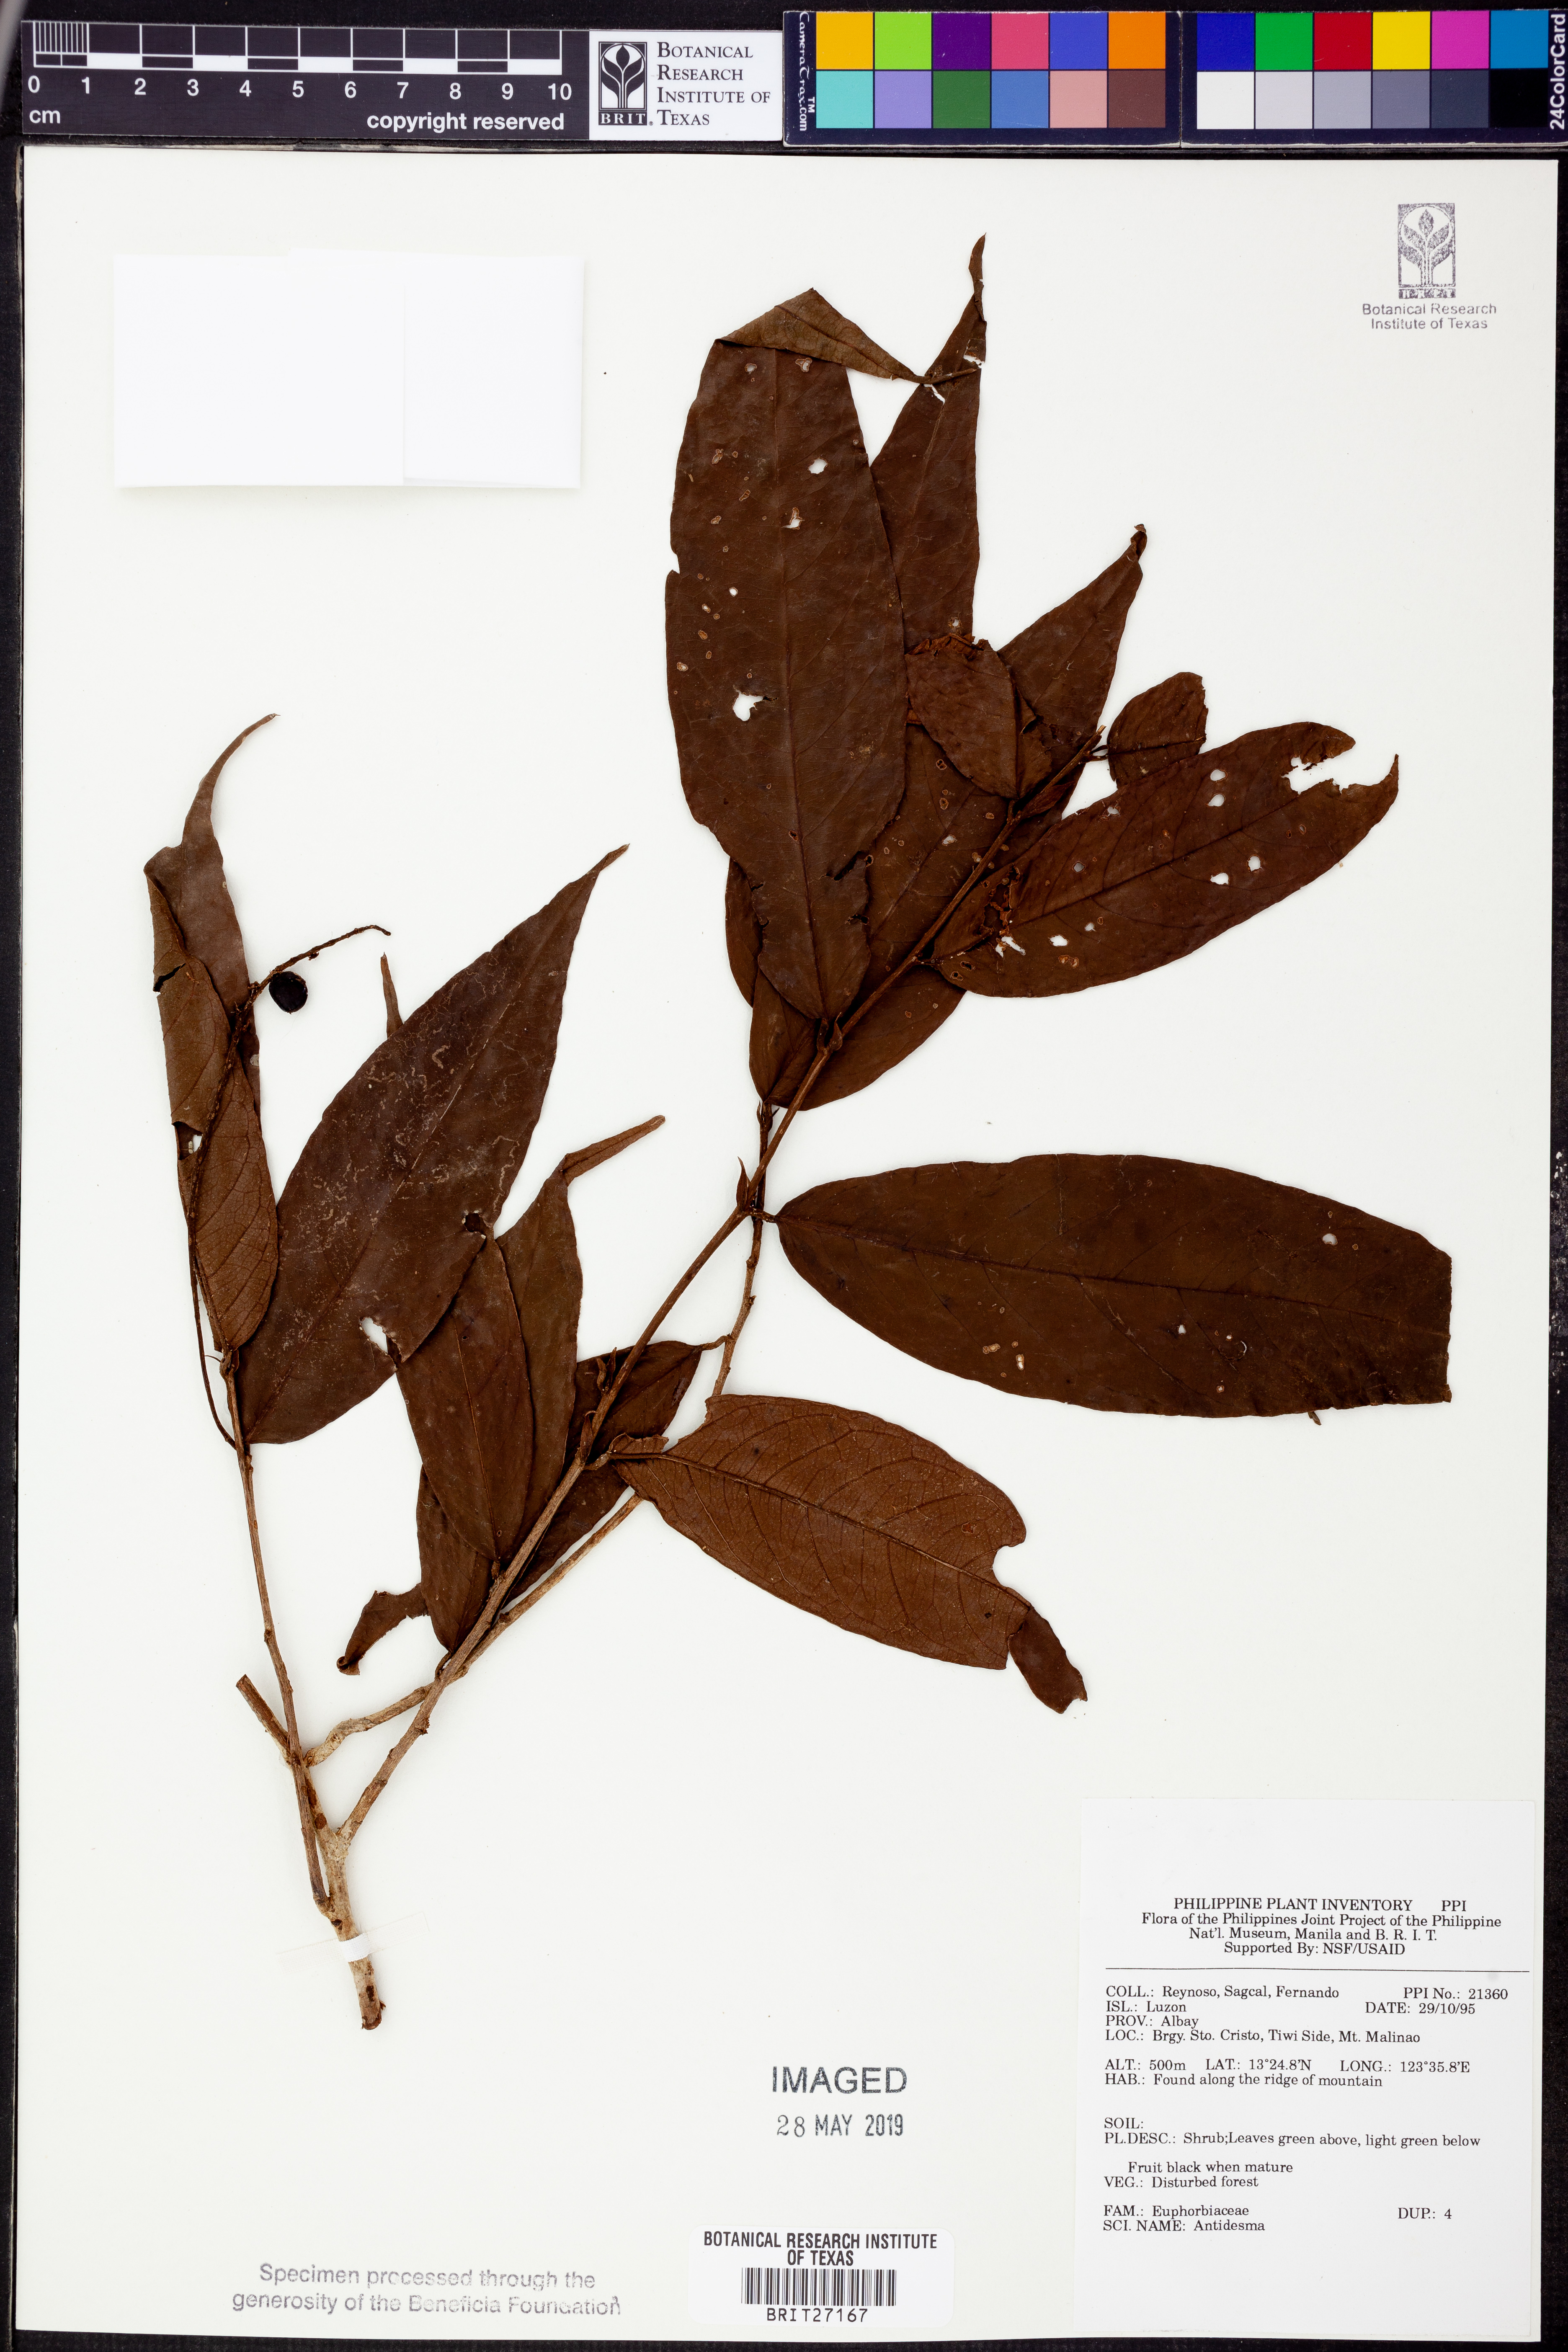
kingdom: Plantae
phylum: Tracheophyta
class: Magnoliopsida
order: Malpighiales
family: Phyllanthaceae
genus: Antidesma
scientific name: Antidesma
